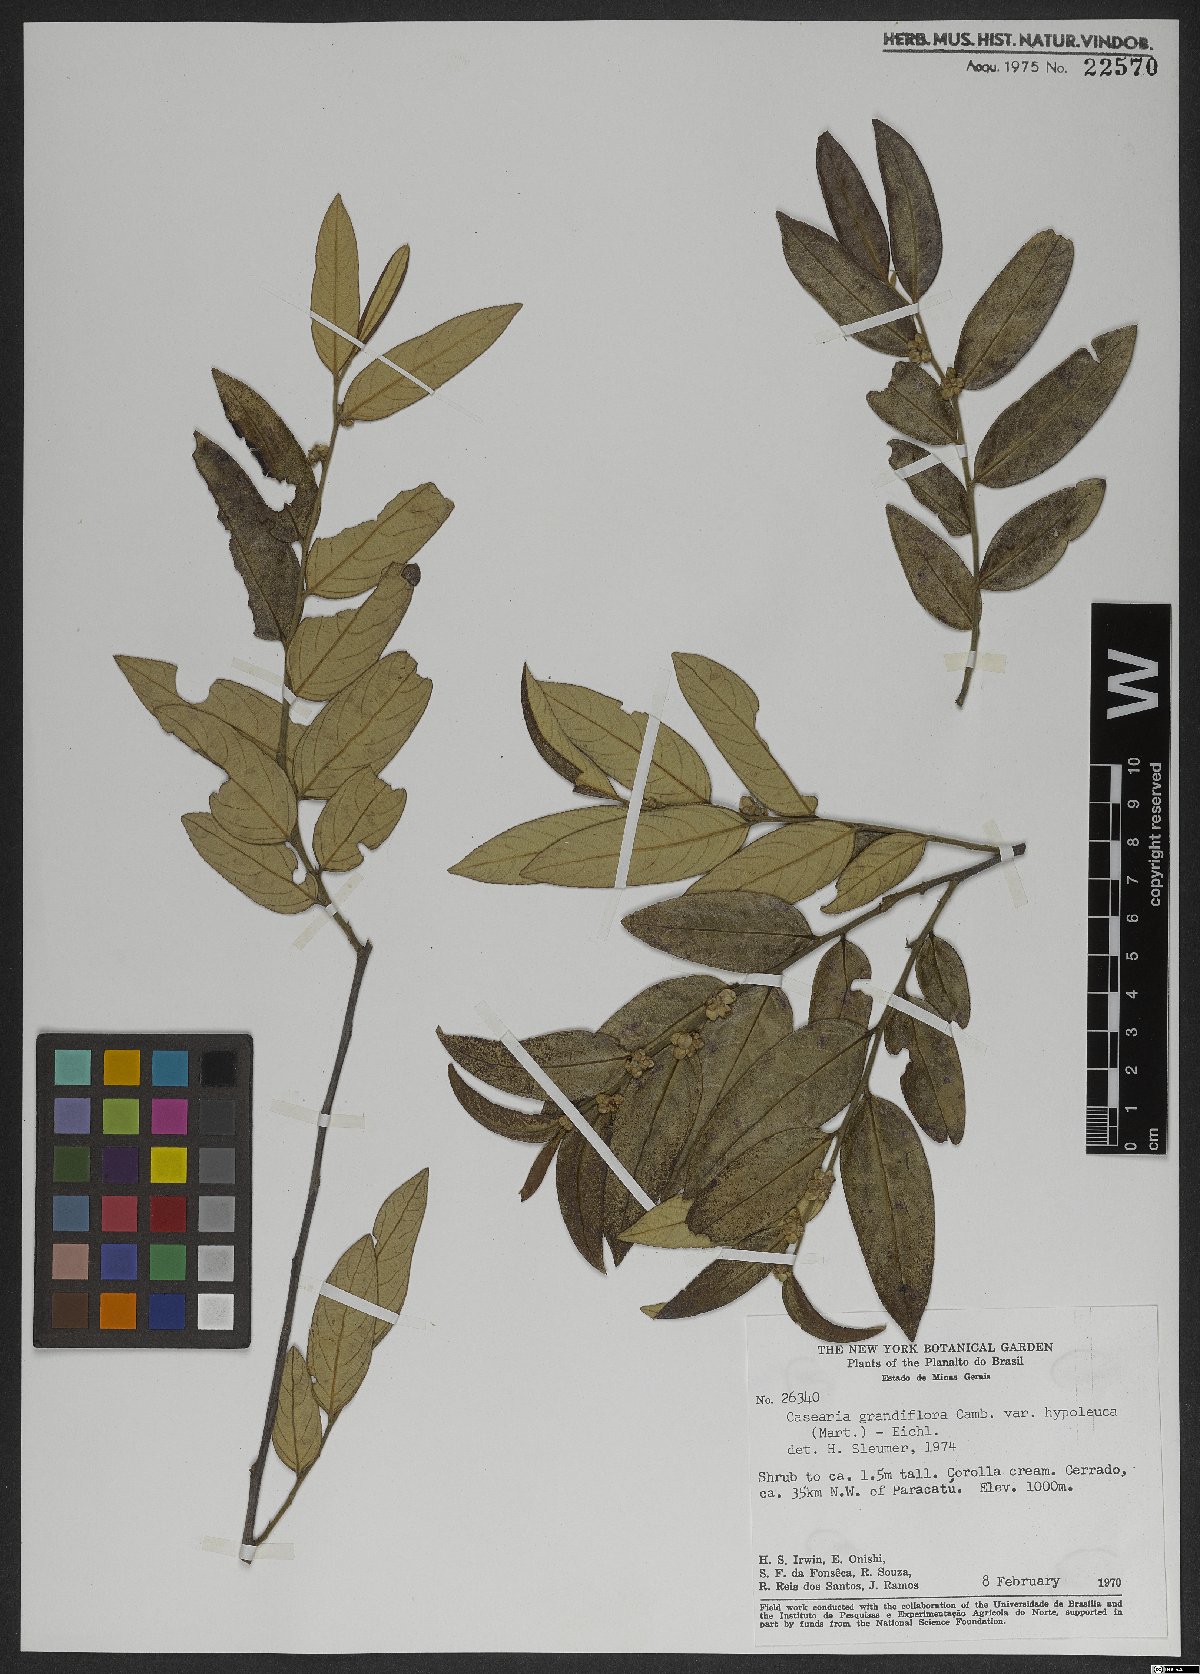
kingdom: Plantae
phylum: Tracheophyta
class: Magnoliopsida
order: Malpighiales
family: Salicaceae
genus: Casearia
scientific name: Casearia grandiflora
